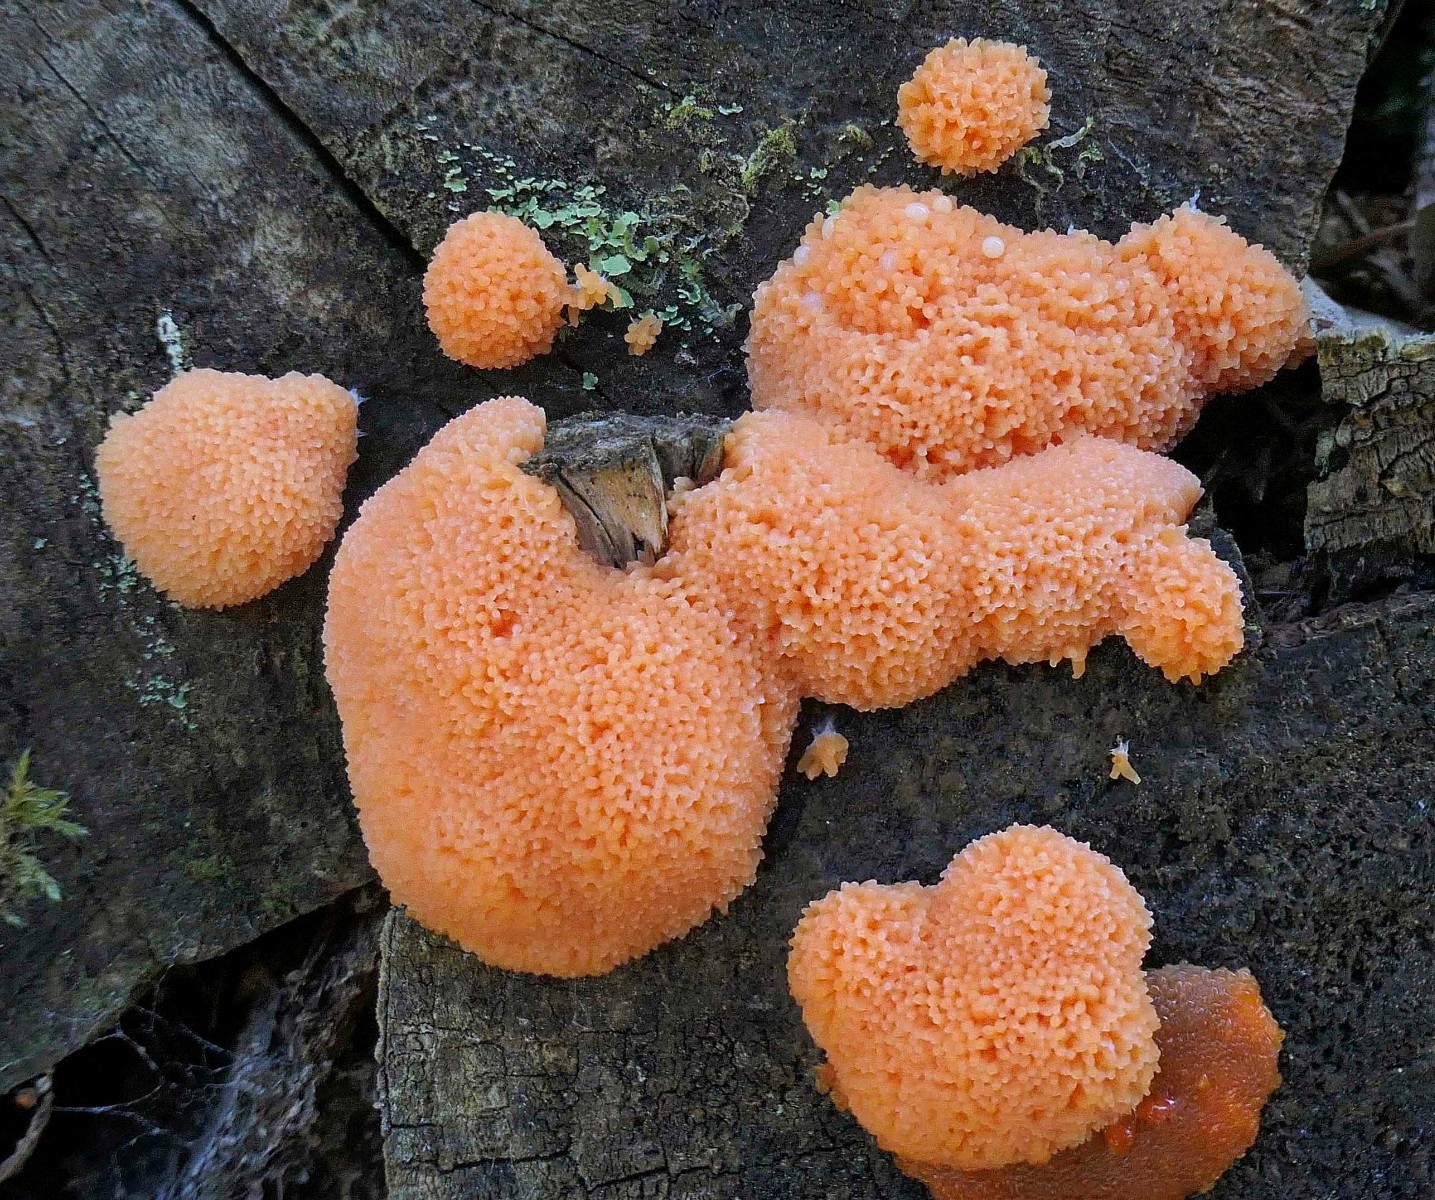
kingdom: Protozoa
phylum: Mycetozoa
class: Myxomycetes
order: Cribrariales
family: Tubiferaceae
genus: Tubifera
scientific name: Tubifera ferruginosa
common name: kanel-støvrør
